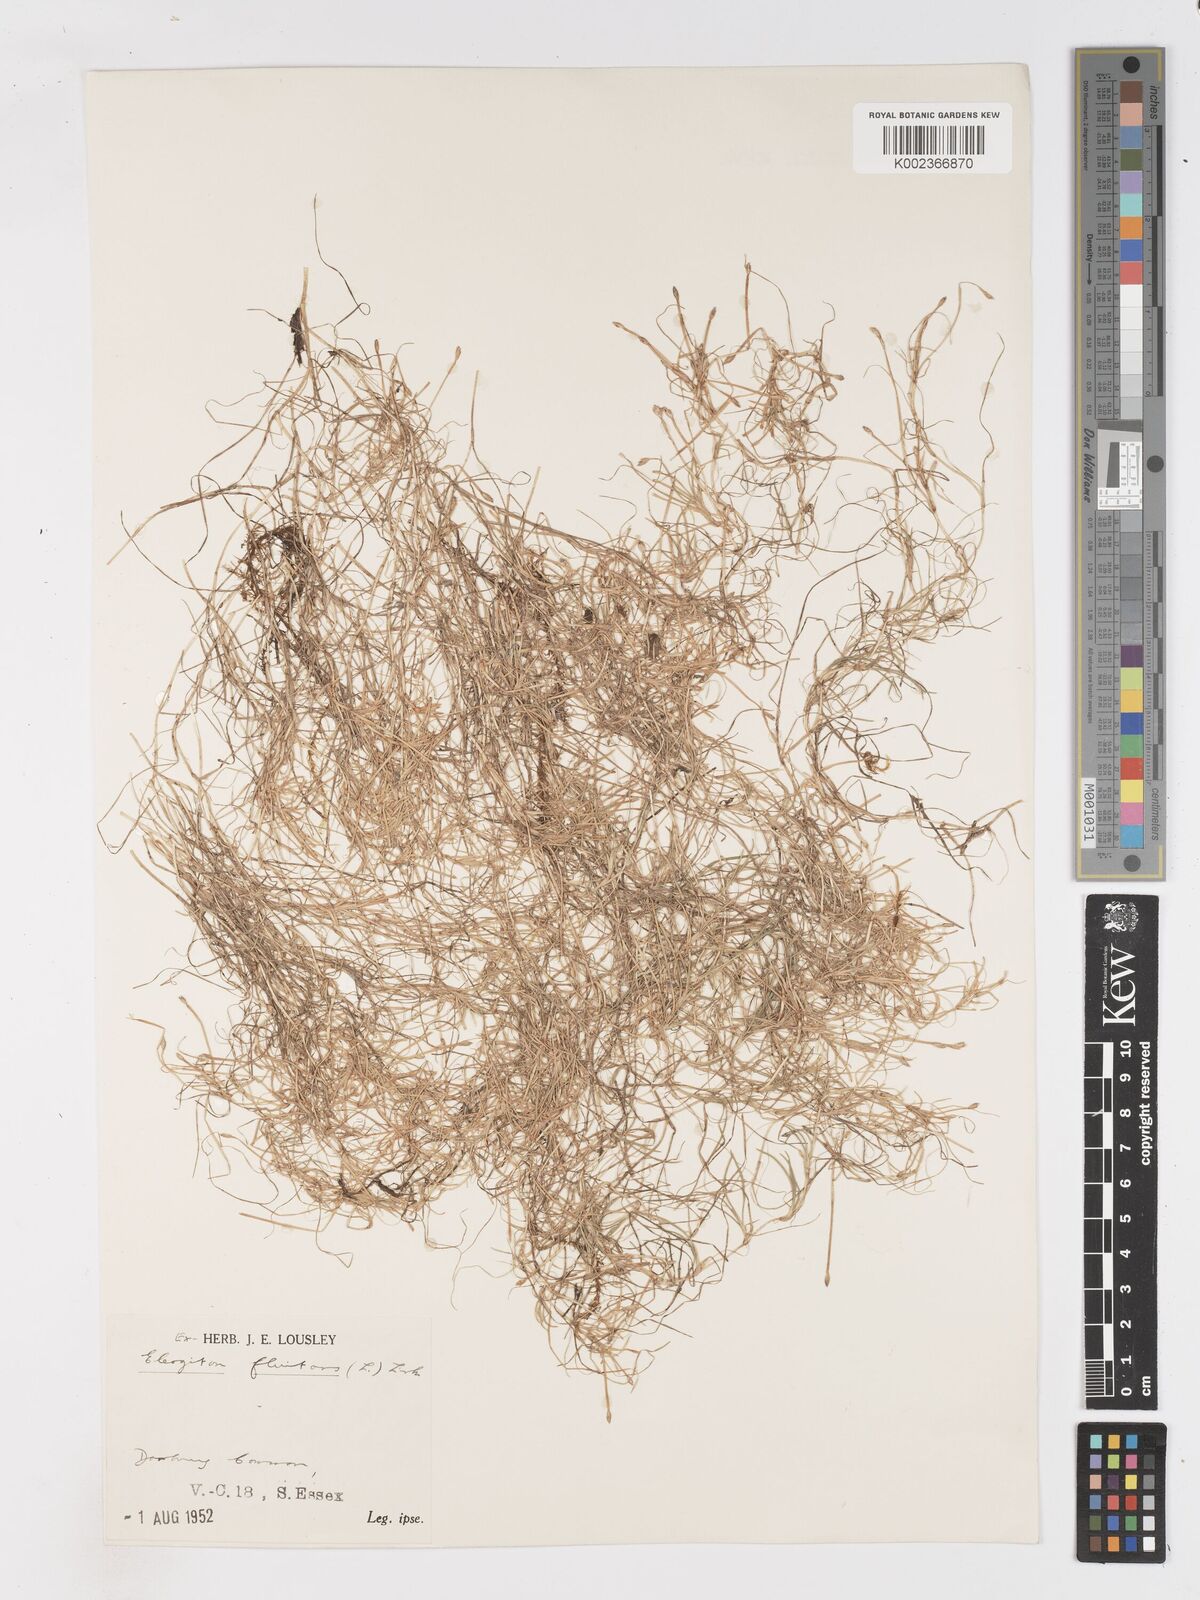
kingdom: Plantae
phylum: Tracheophyta
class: Liliopsida
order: Poales
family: Cyperaceae
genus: Isolepis
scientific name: Isolepis fluitans
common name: Floating club-rush
